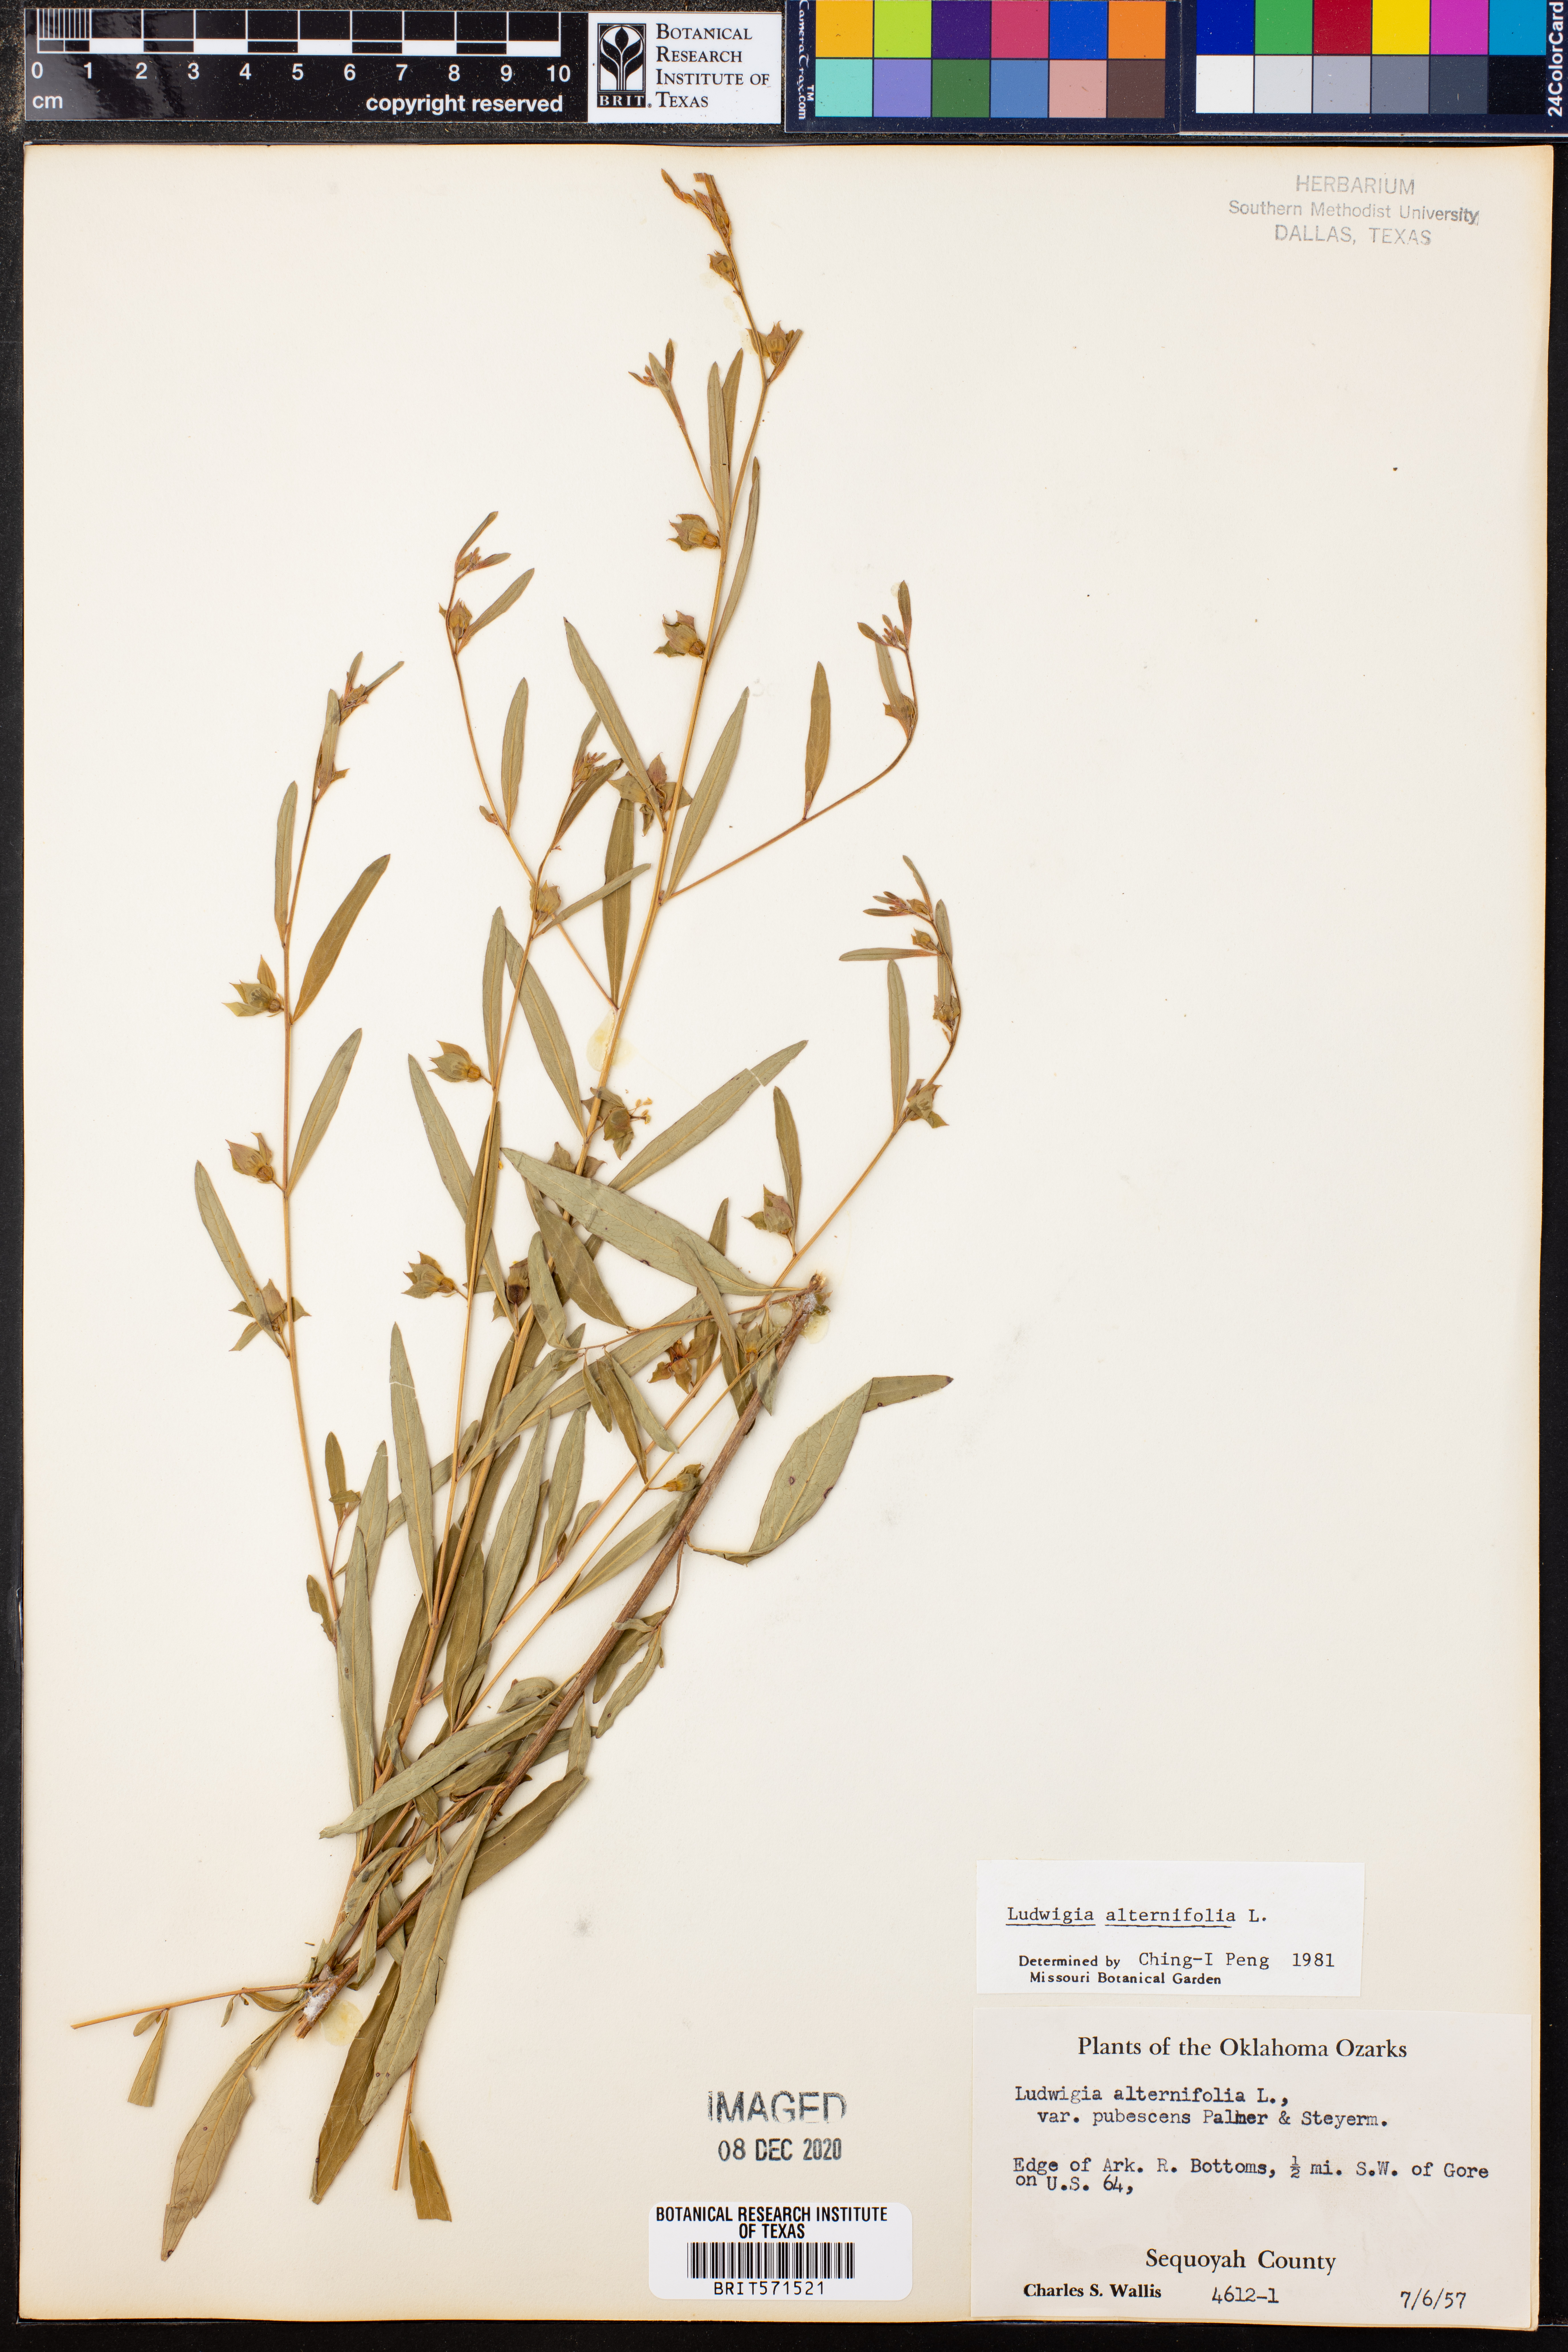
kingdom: Plantae
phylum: Tracheophyta
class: Magnoliopsida
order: Myrtales
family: Onagraceae
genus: Ludwigia
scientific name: Ludwigia alternifolia
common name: Rattlebox
